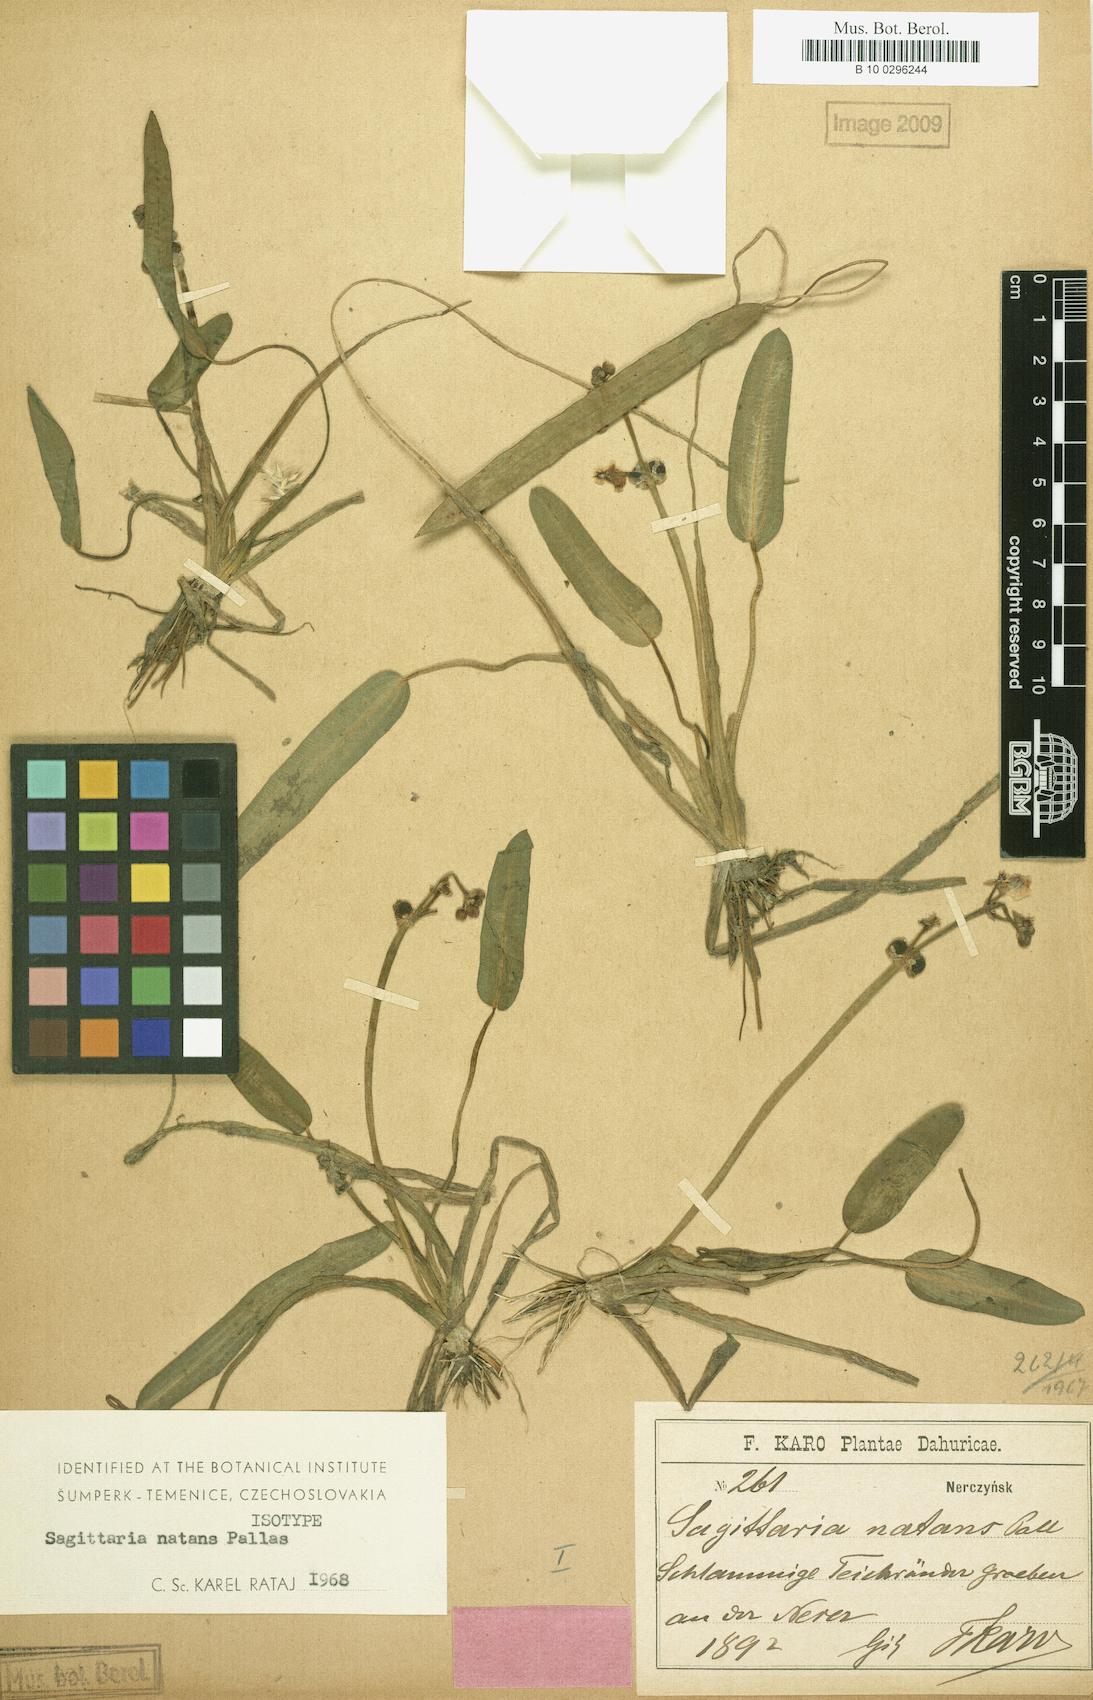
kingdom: Plantae
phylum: Tracheophyta
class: Liliopsida
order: Alismatales
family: Alismataceae
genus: Sagittaria
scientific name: Sagittaria natans
